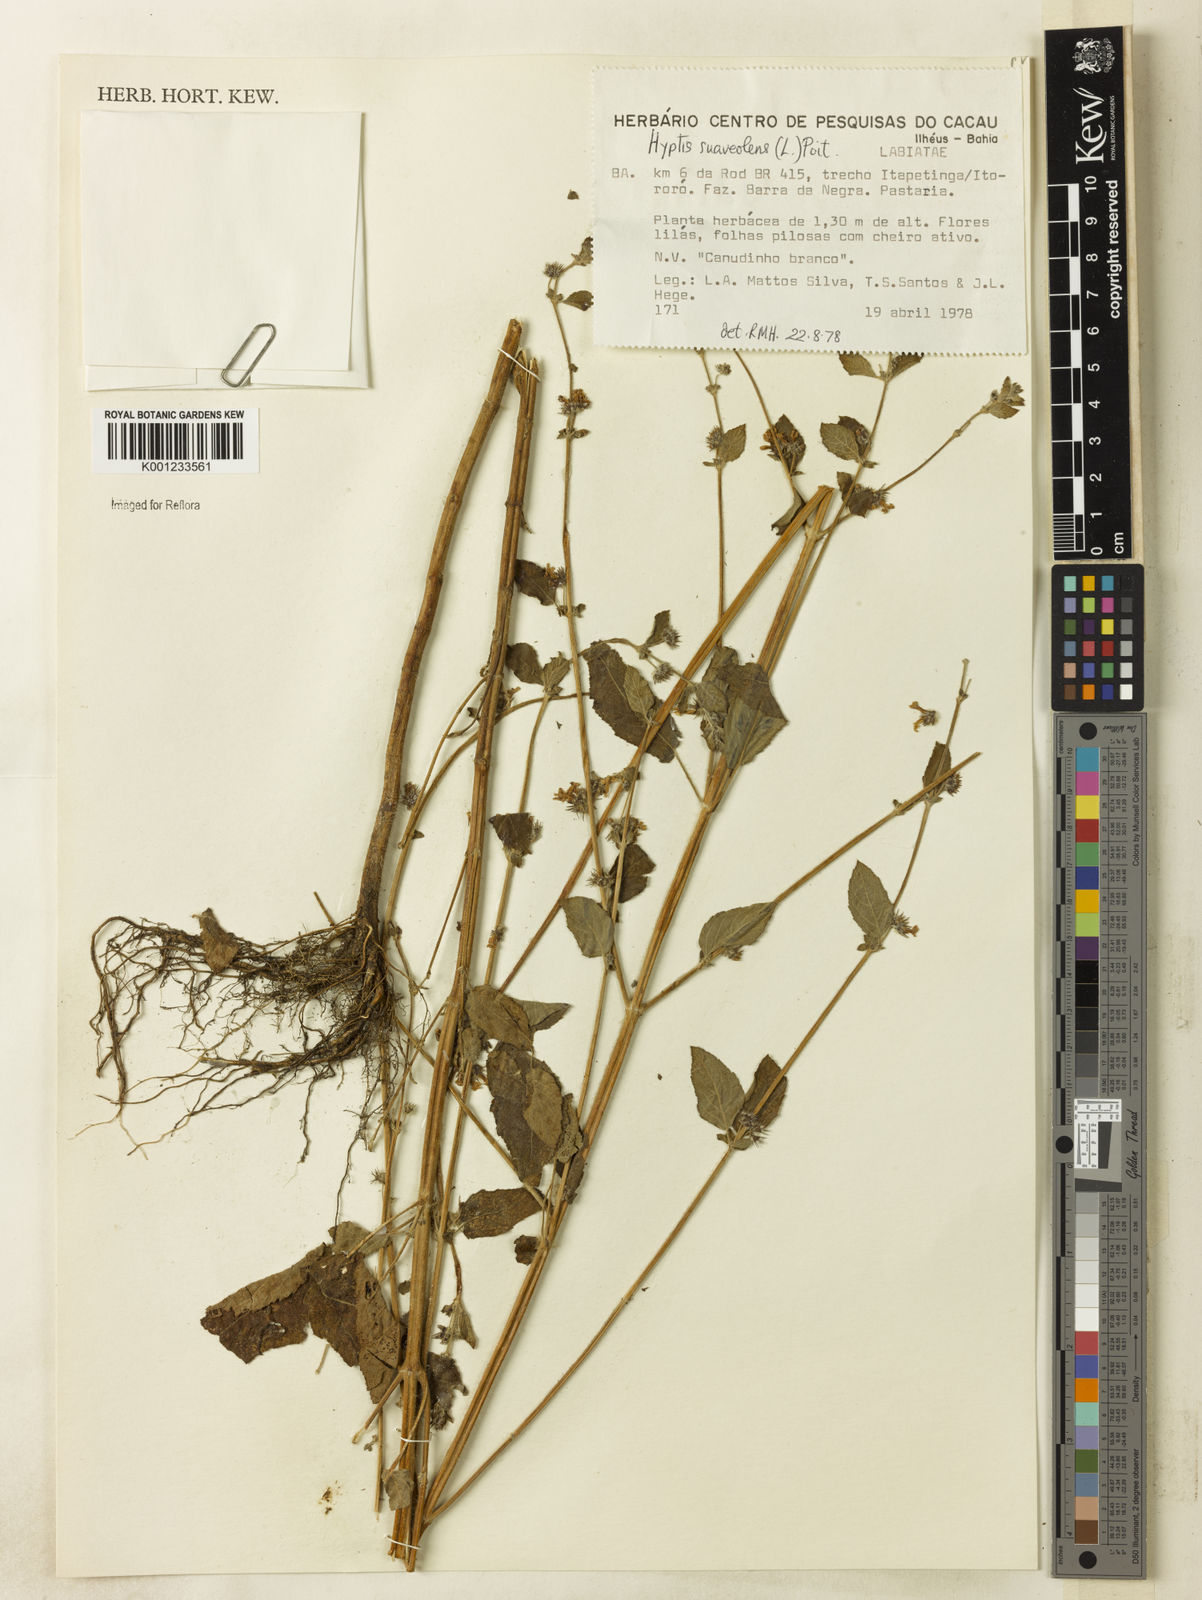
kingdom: Plantae
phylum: Tracheophyta
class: Magnoliopsida
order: Lamiales
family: Lamiaceae
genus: Mesosphaerum
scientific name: Mesosphaerum suaveolens
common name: Pignut
